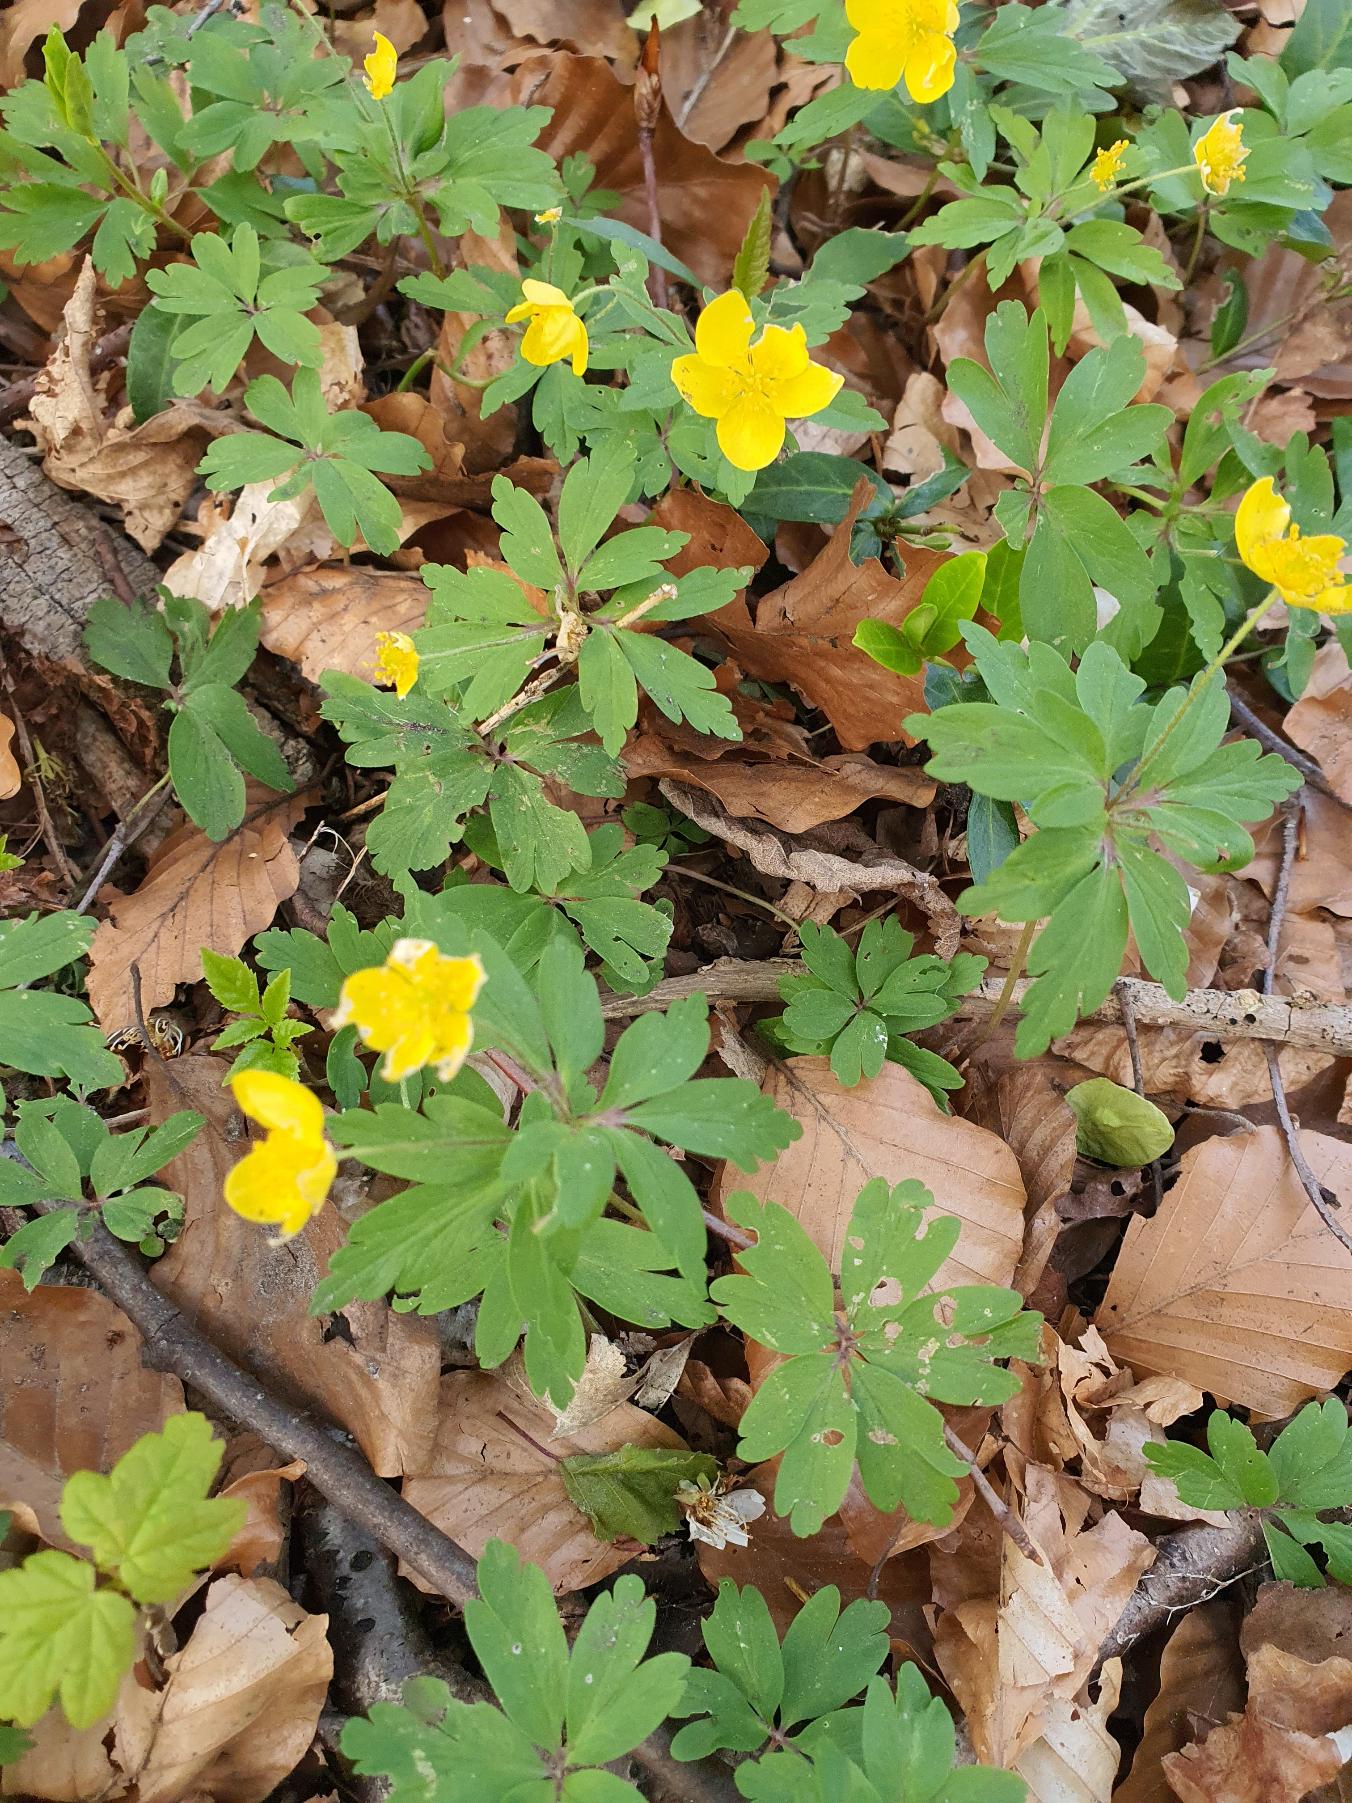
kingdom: Plantae
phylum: Tracheophyta
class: Magnoliopsida
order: Ranunculales
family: Ranunculaceae
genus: Anemone
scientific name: Anemone ranunculoides
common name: Gul anemone
